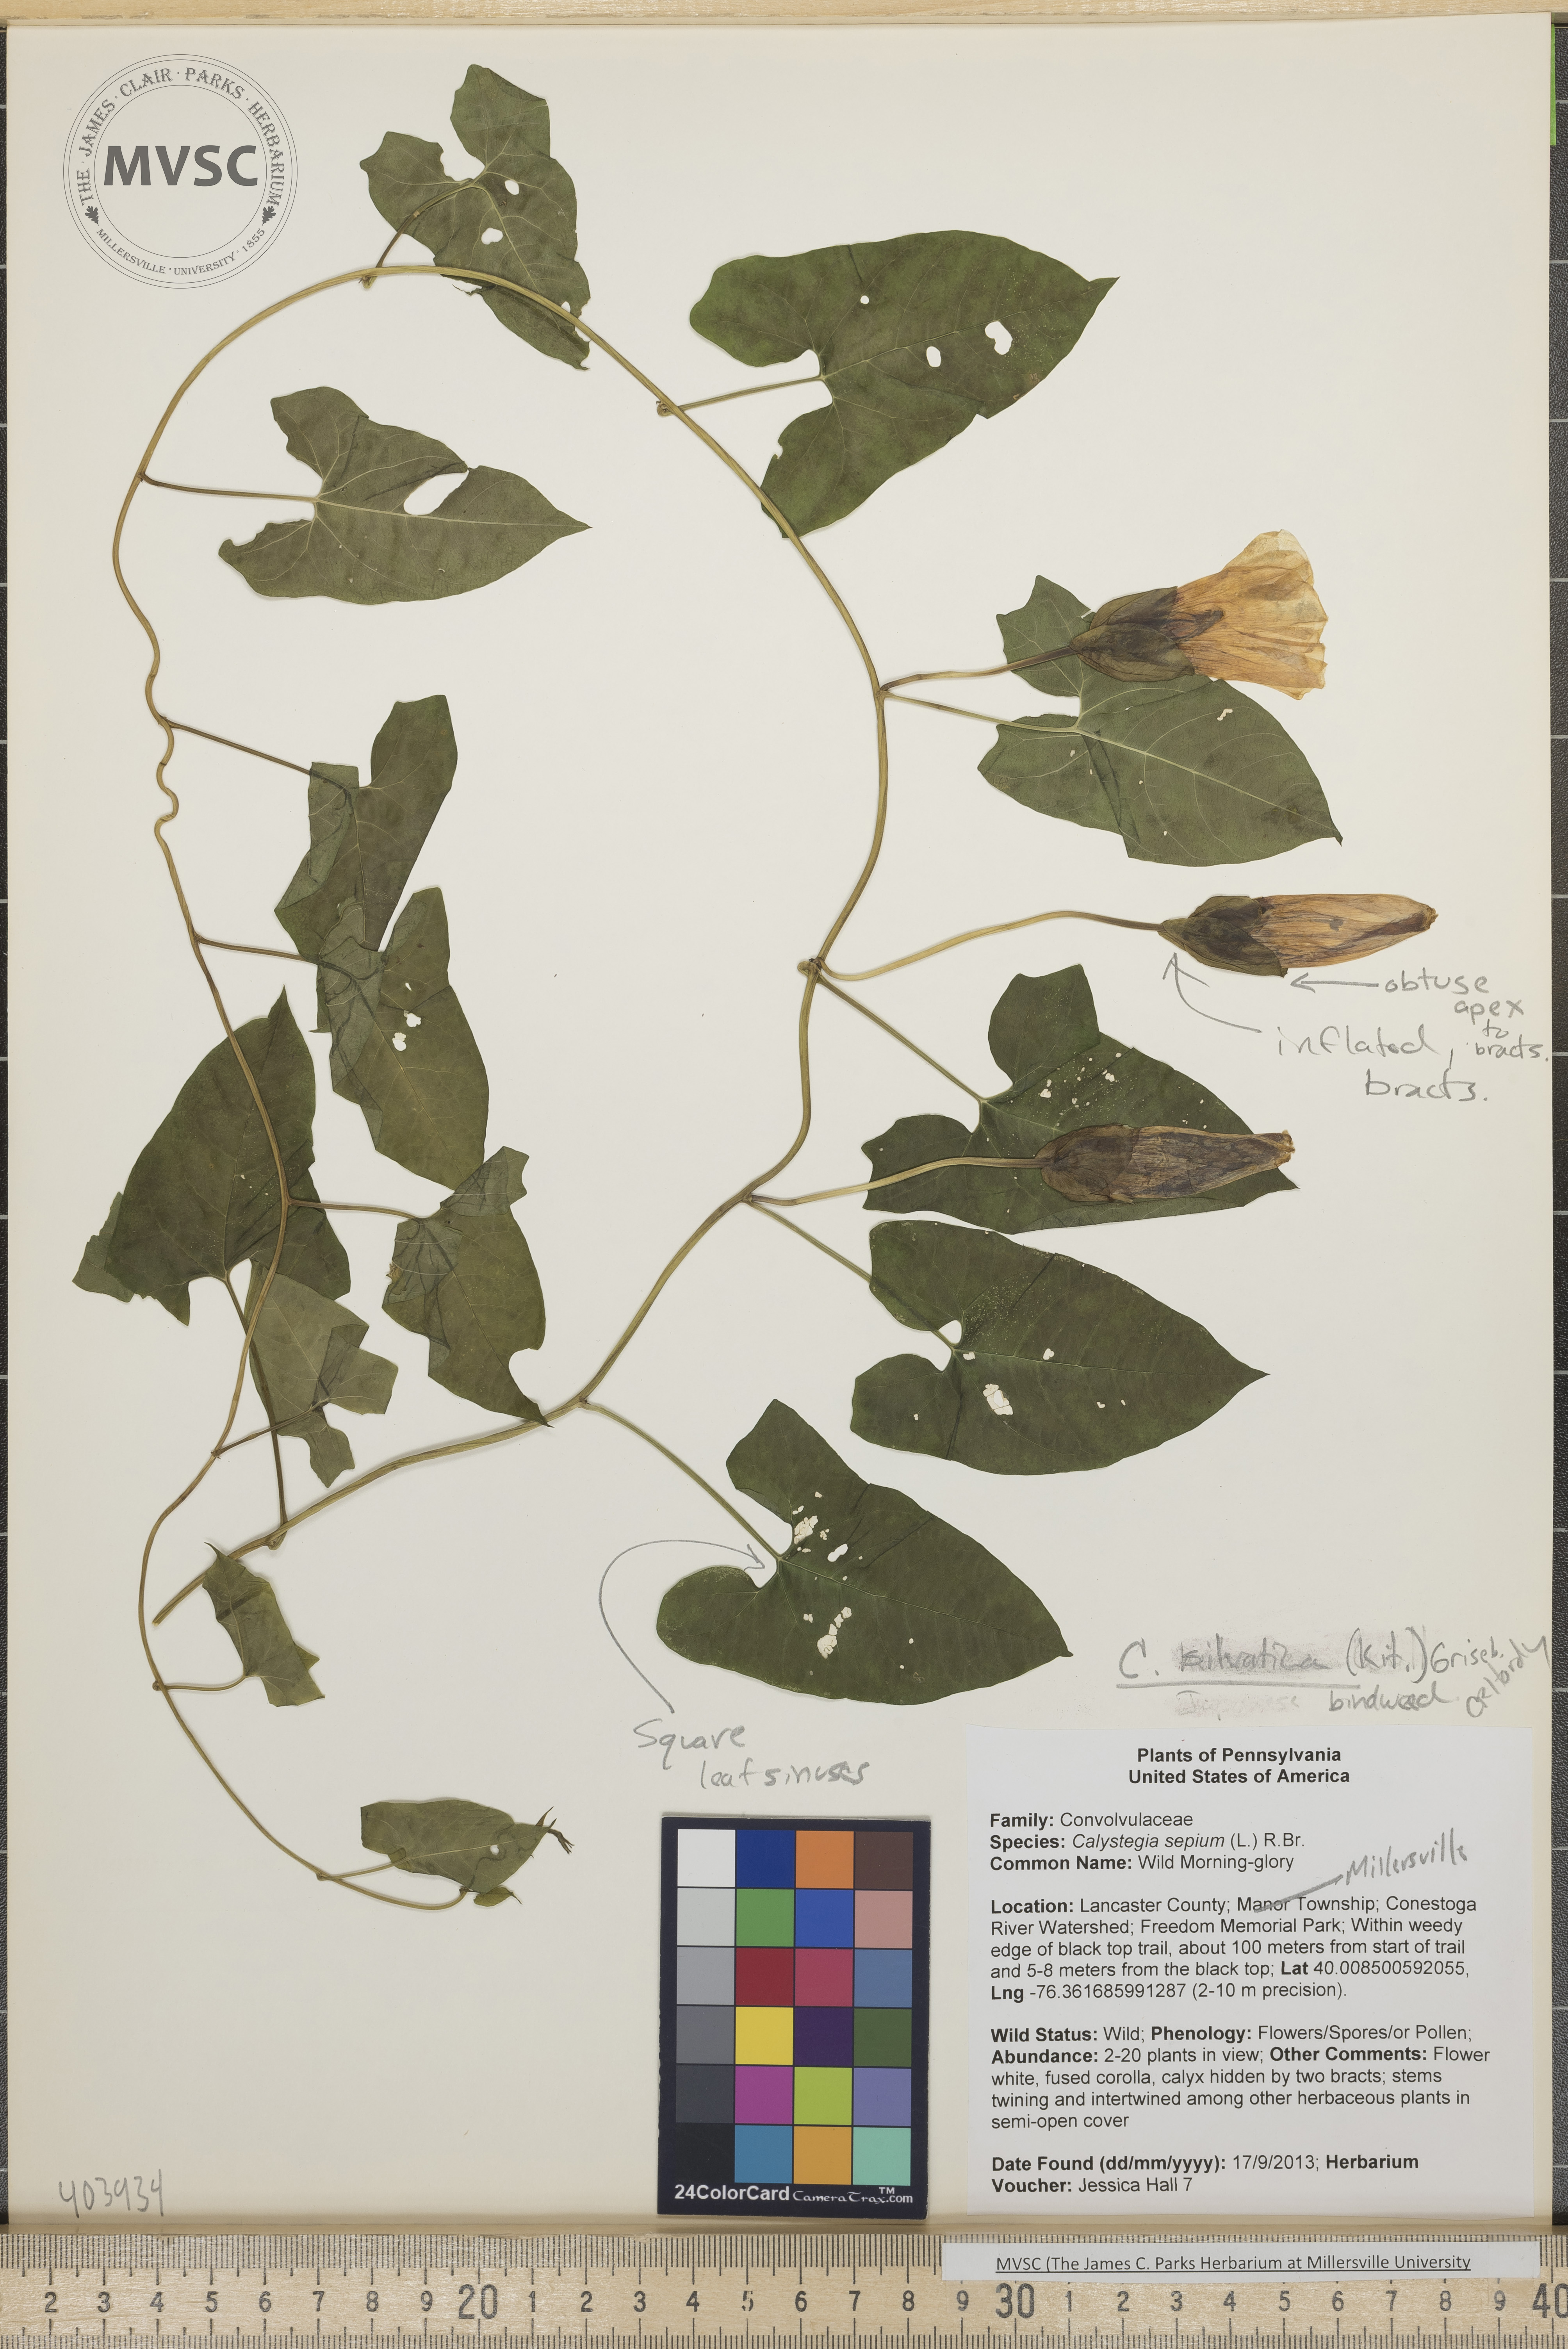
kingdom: Plantae
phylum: Tracheophyta
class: Magnoliopsida
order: Solanales
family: Convolvulaceae
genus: Calystegia
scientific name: Calystegia silvatica
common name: Bindweed
